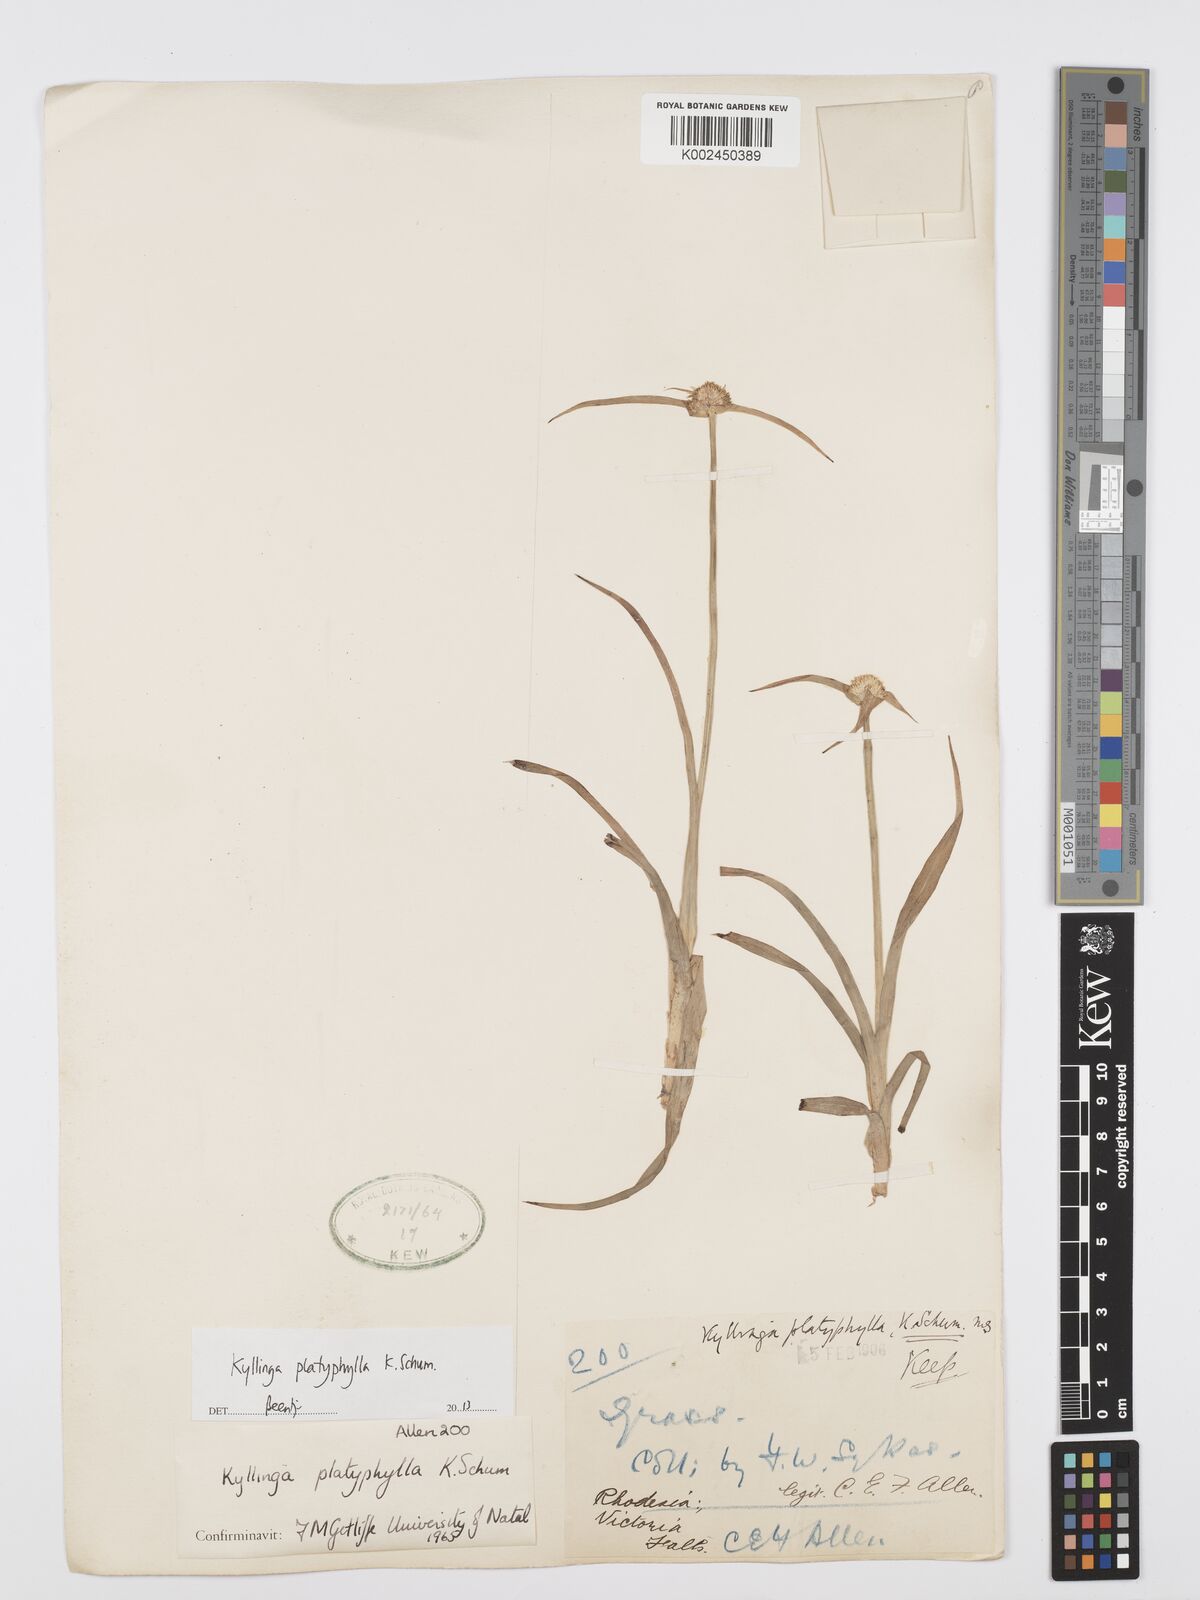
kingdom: Plantae
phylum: Tracheophyta
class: Liliopsida
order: Poales
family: Cyperaceae
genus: Cyperus
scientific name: Cyperus
